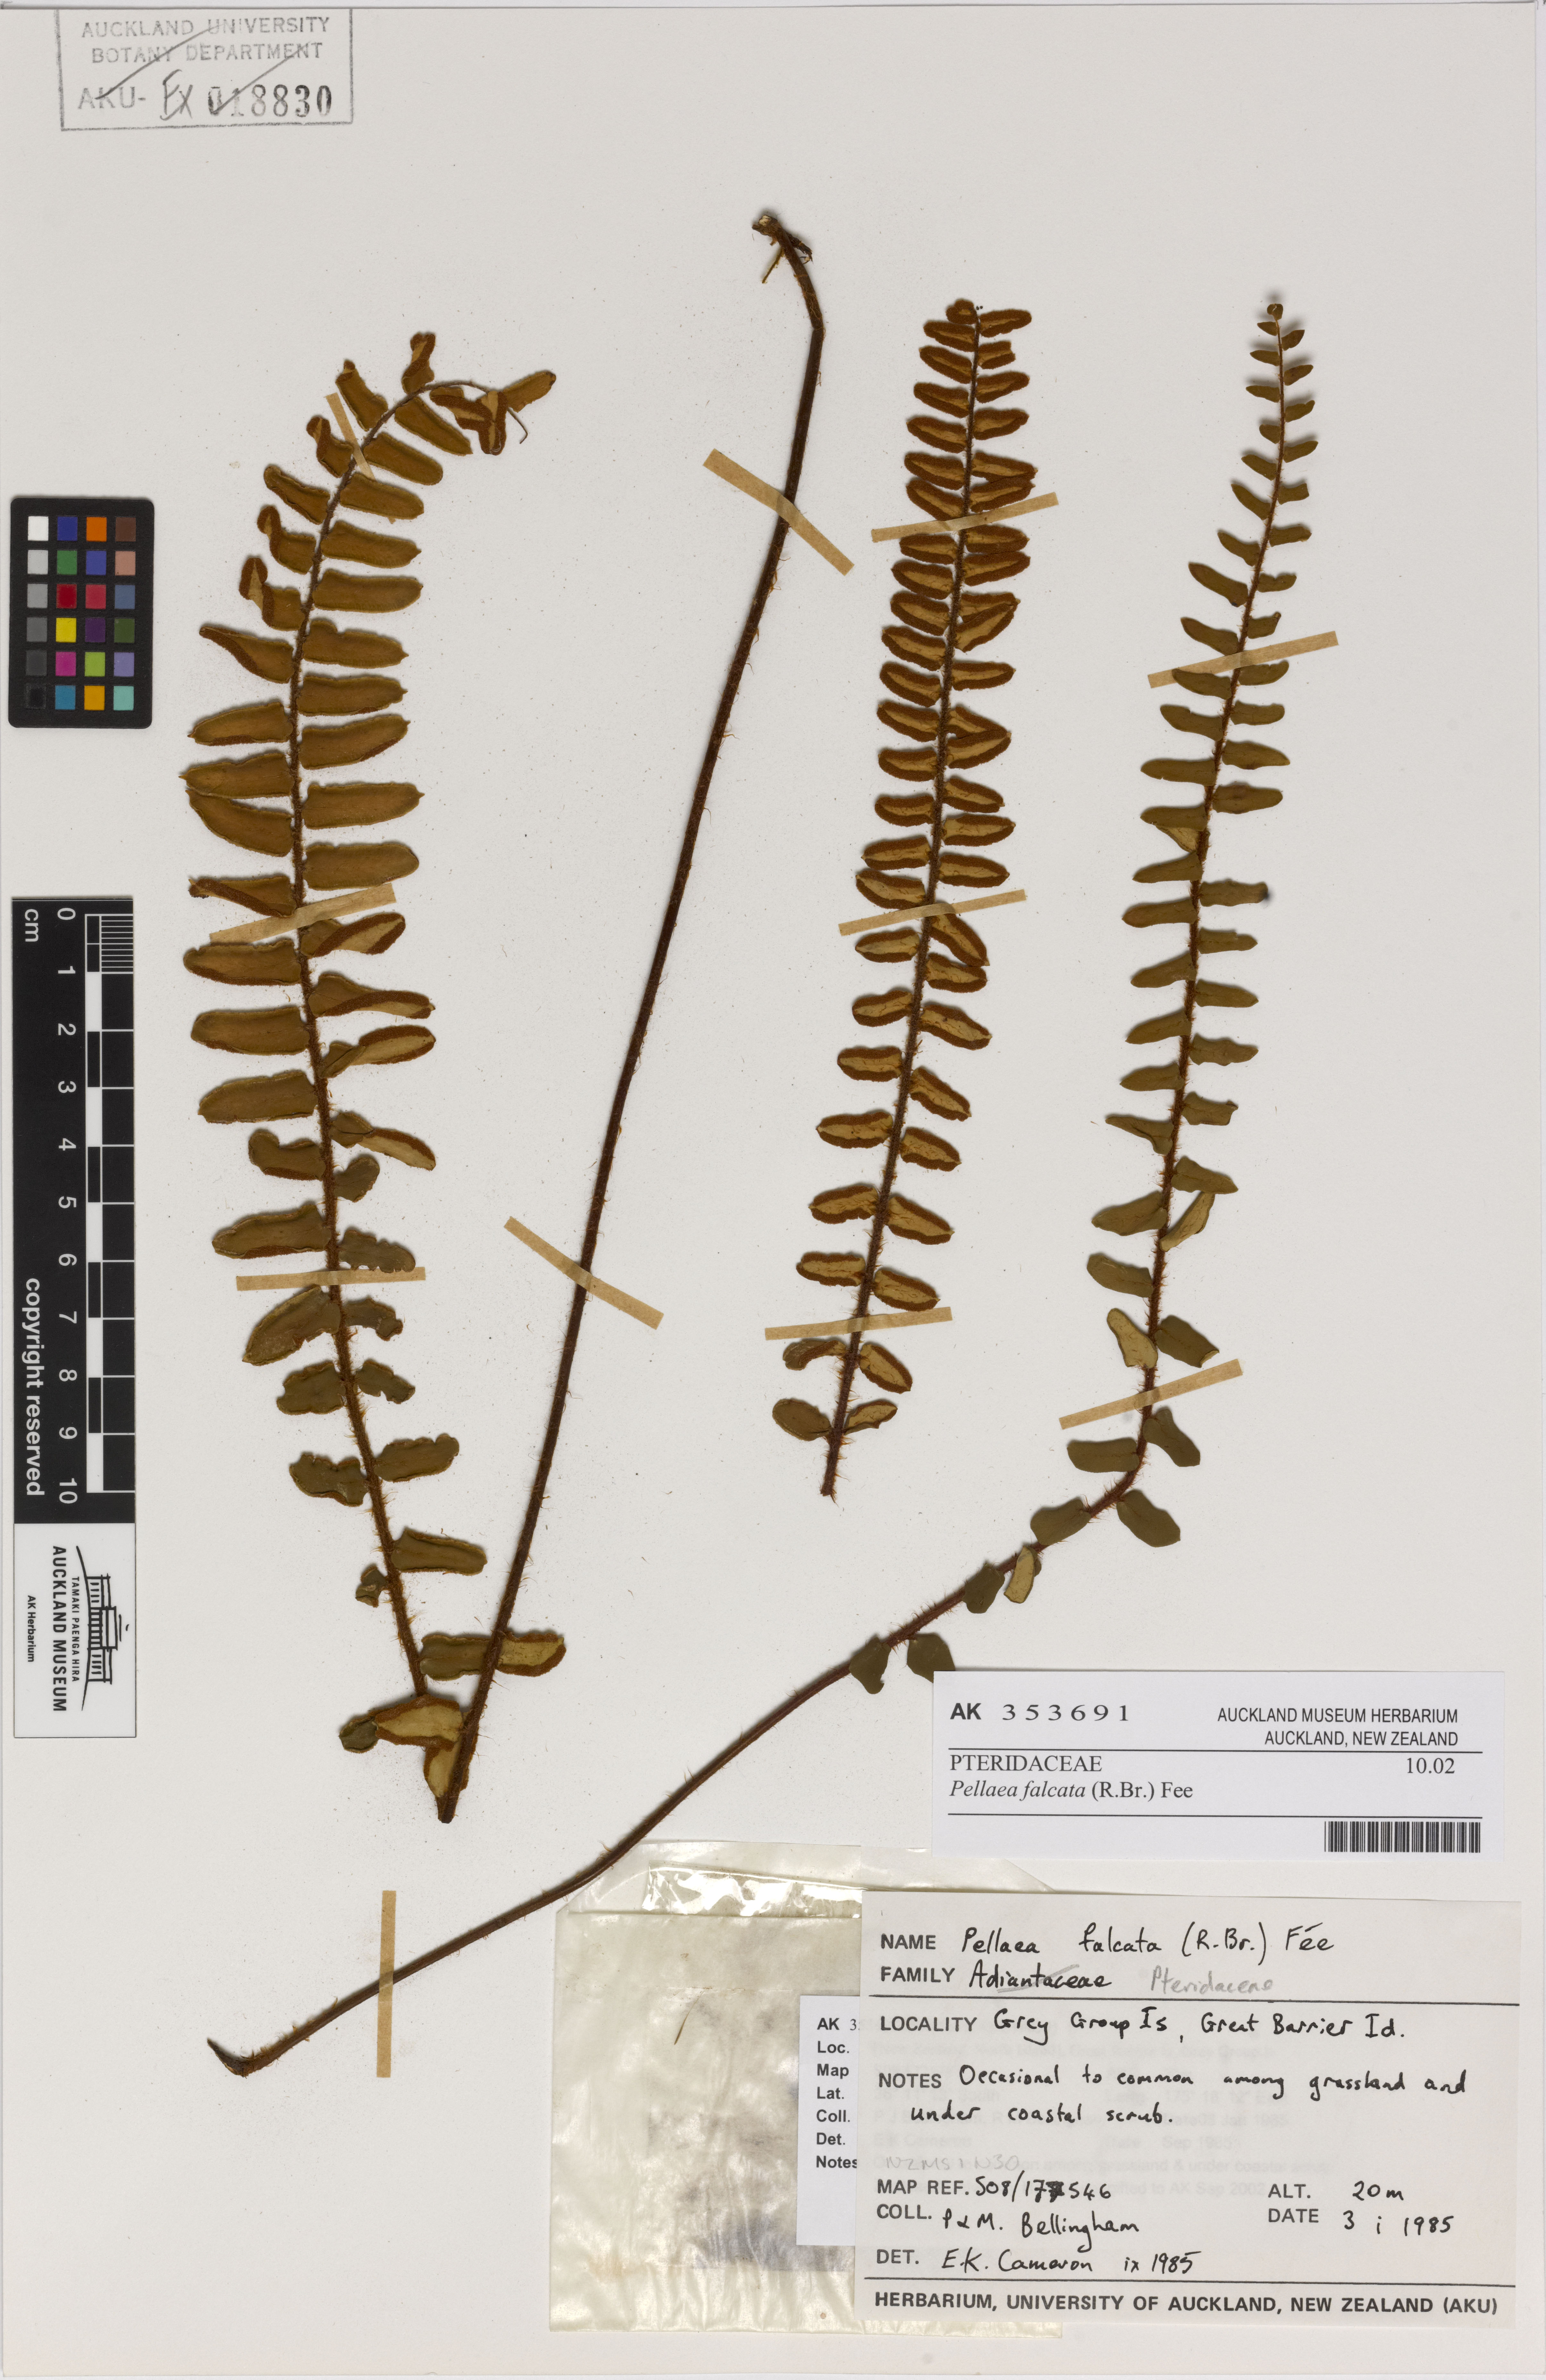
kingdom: Plantae
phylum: Tracheophyta
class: Polypodiopsida
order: Polypodiales
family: Pteridaceae
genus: Pellaea
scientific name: Pellaea falcata
